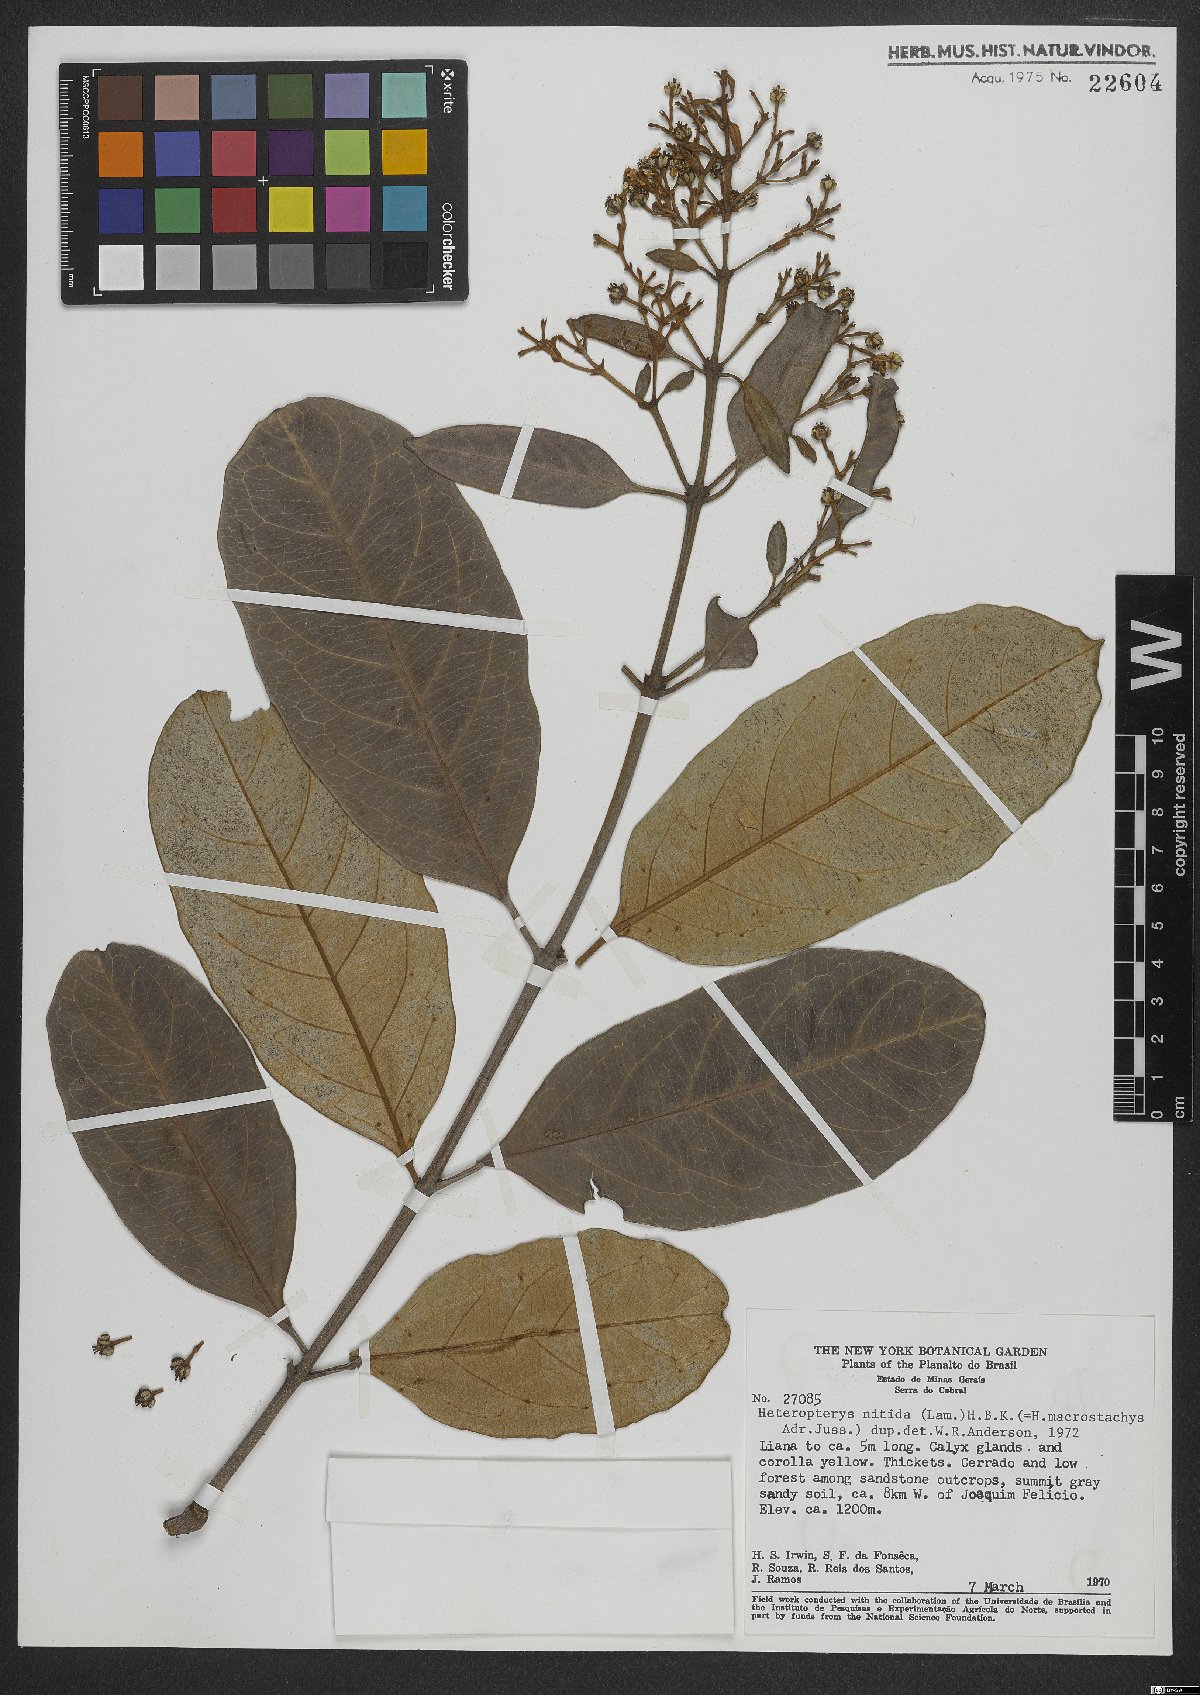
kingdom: Plantae
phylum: Tracheophyta
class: Magnoliopsida
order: Malpighiales
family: Malpighiaceae
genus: Heteropterys
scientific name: Heteropterys nitida
